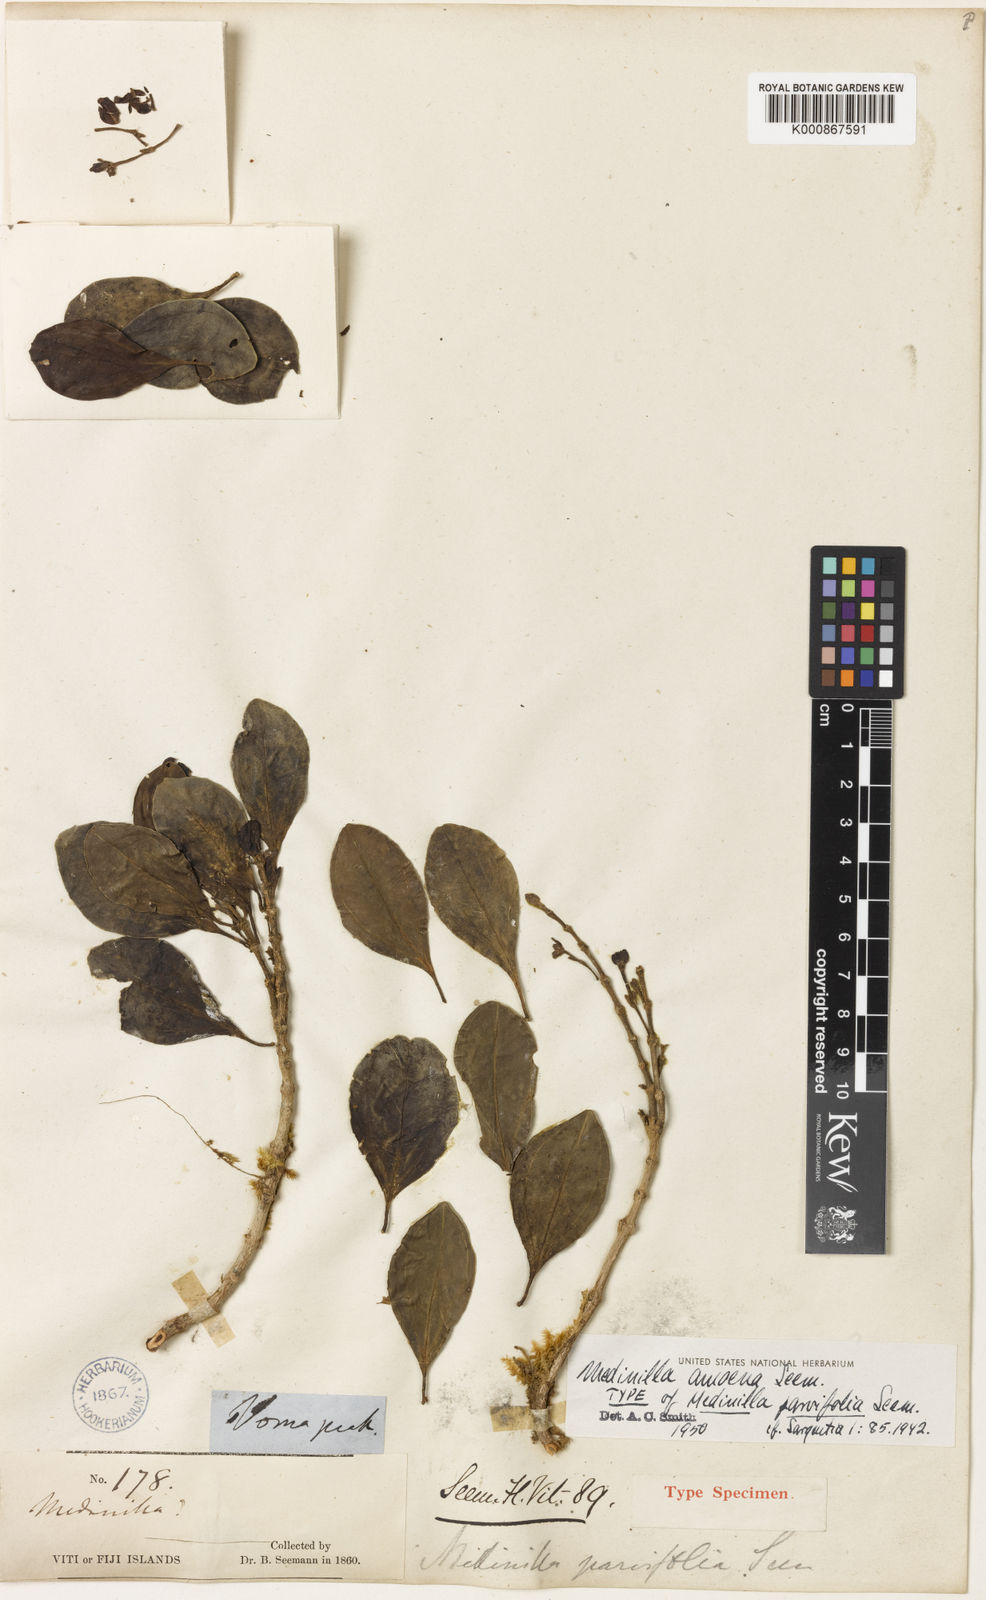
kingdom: Plantae
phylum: Tracheophyta
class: Magnoliopsida
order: Myrtales
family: Melastomataceae
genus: Medinilla
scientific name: Medinilla ovalifolia
